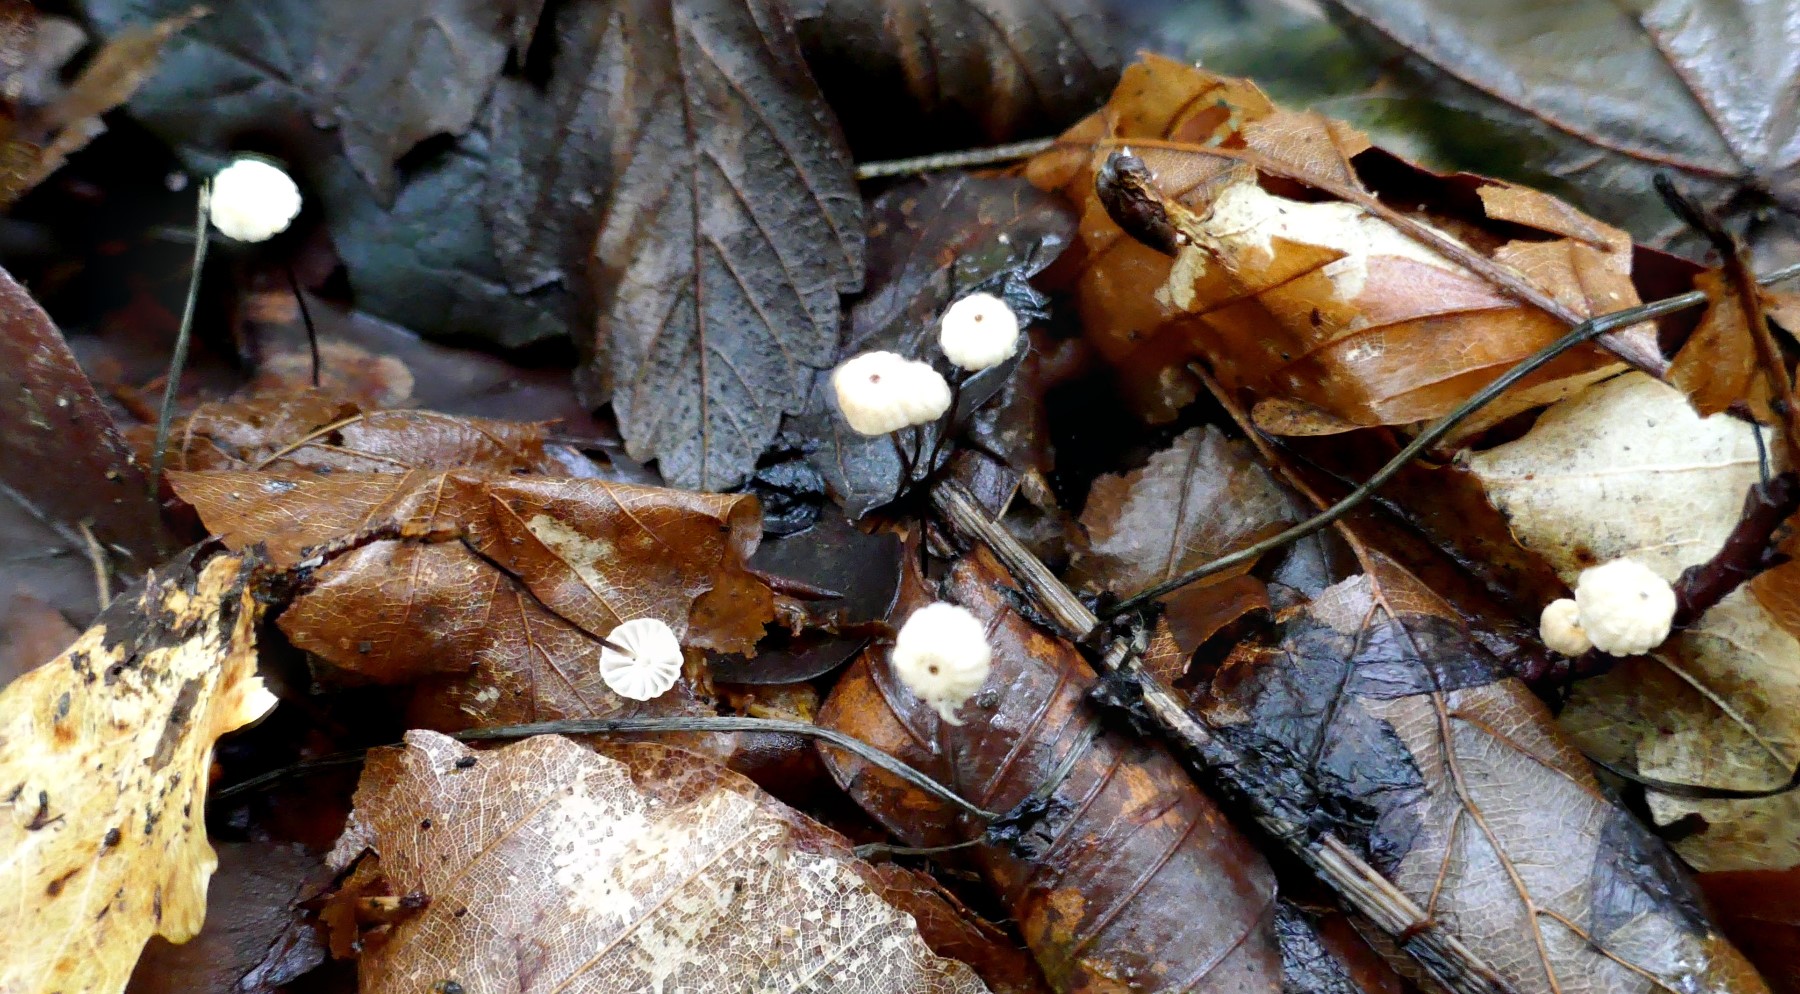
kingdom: Fungi
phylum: Basidiomycota
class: Agaricomycetes
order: Agaricales
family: Marasmiaceae
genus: Marasmius
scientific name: Marasmius bulliardii
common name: furet bruskhat
